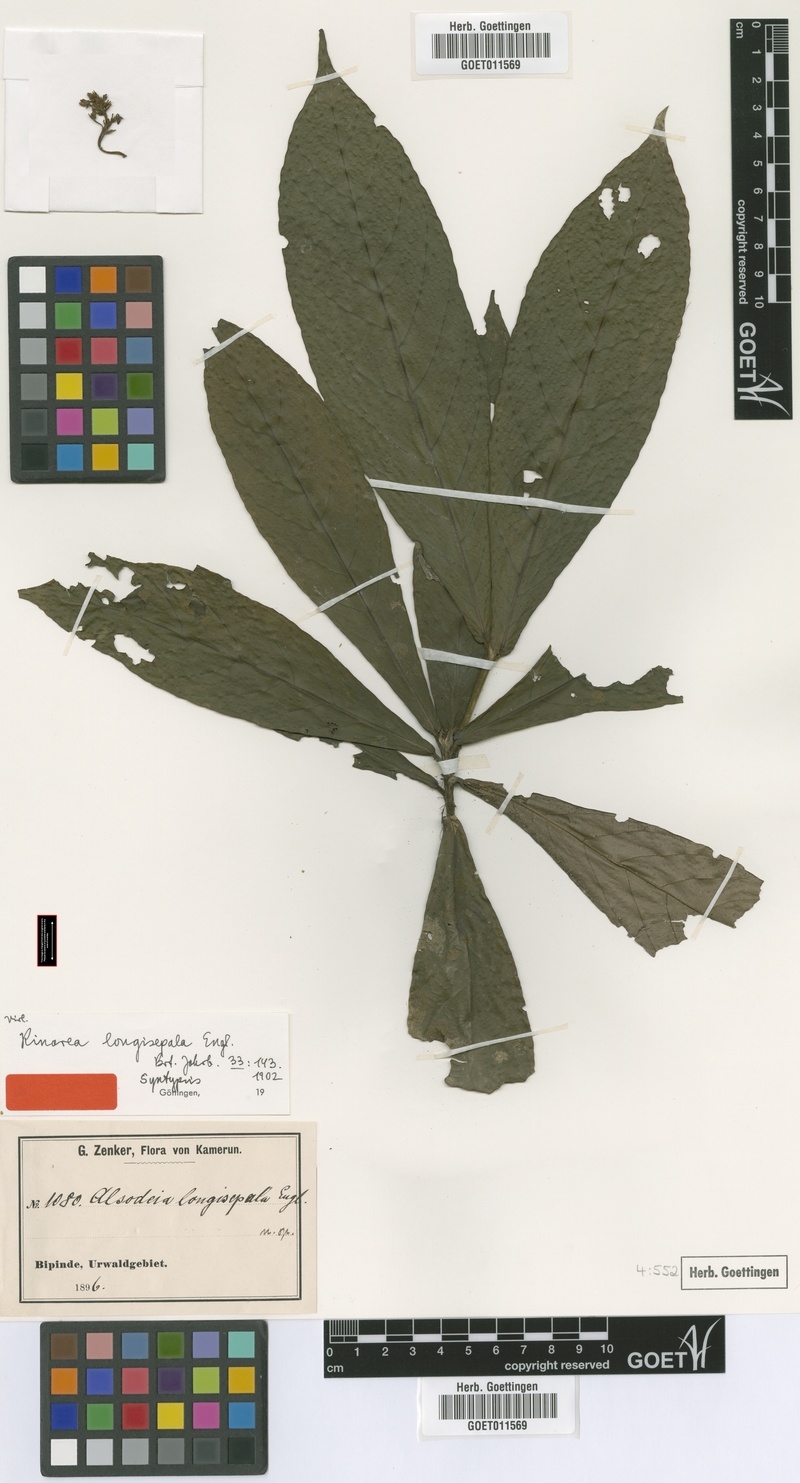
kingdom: Plantae
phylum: Tracheophyta
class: Magnoliopsida
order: Malpighiales
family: Violaceae
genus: Rinorea
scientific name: Rinorea longisepala
